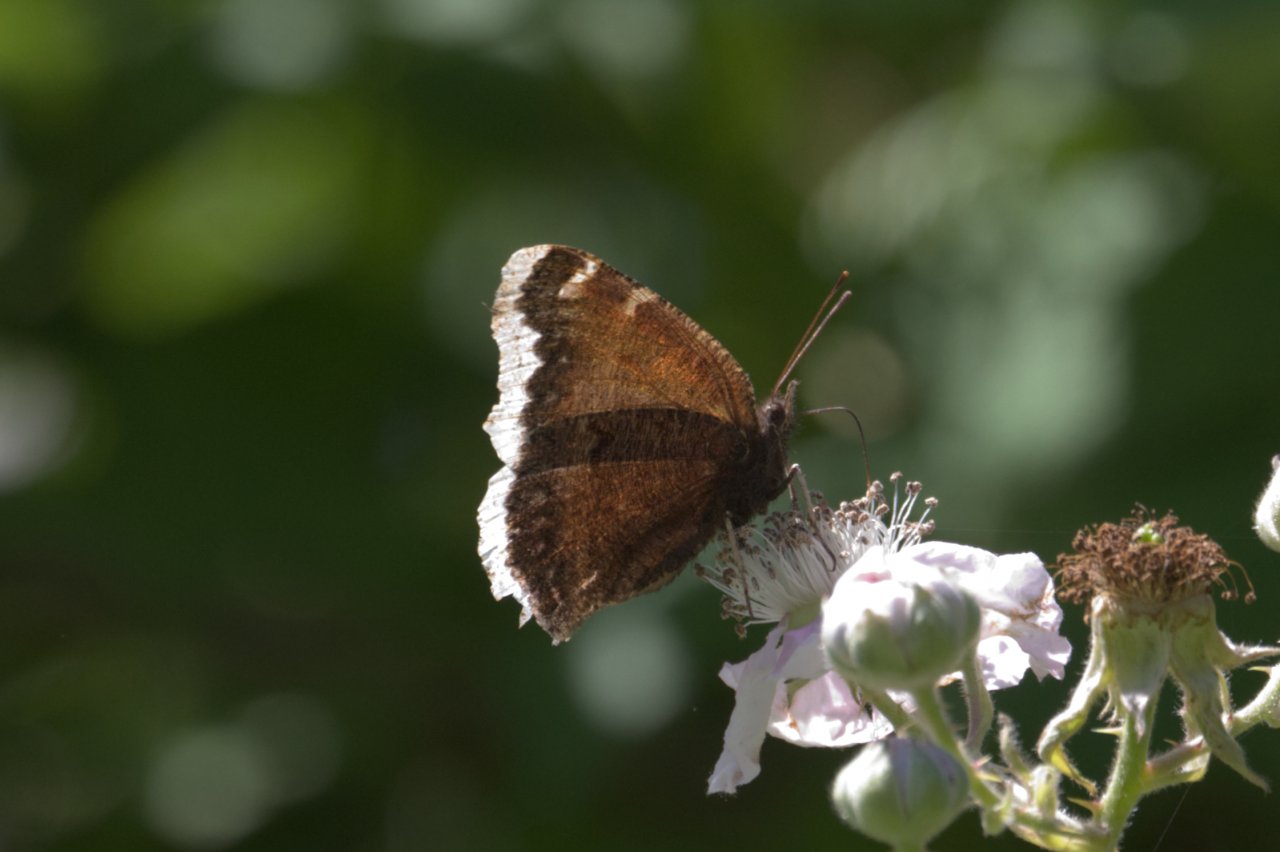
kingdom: Animalia
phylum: Arthropoda
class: Insecta
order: Lepidoptera
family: Nymphalidae
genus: Nymphalis
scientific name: Nymphalis antiopa
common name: Mourning Cloak
